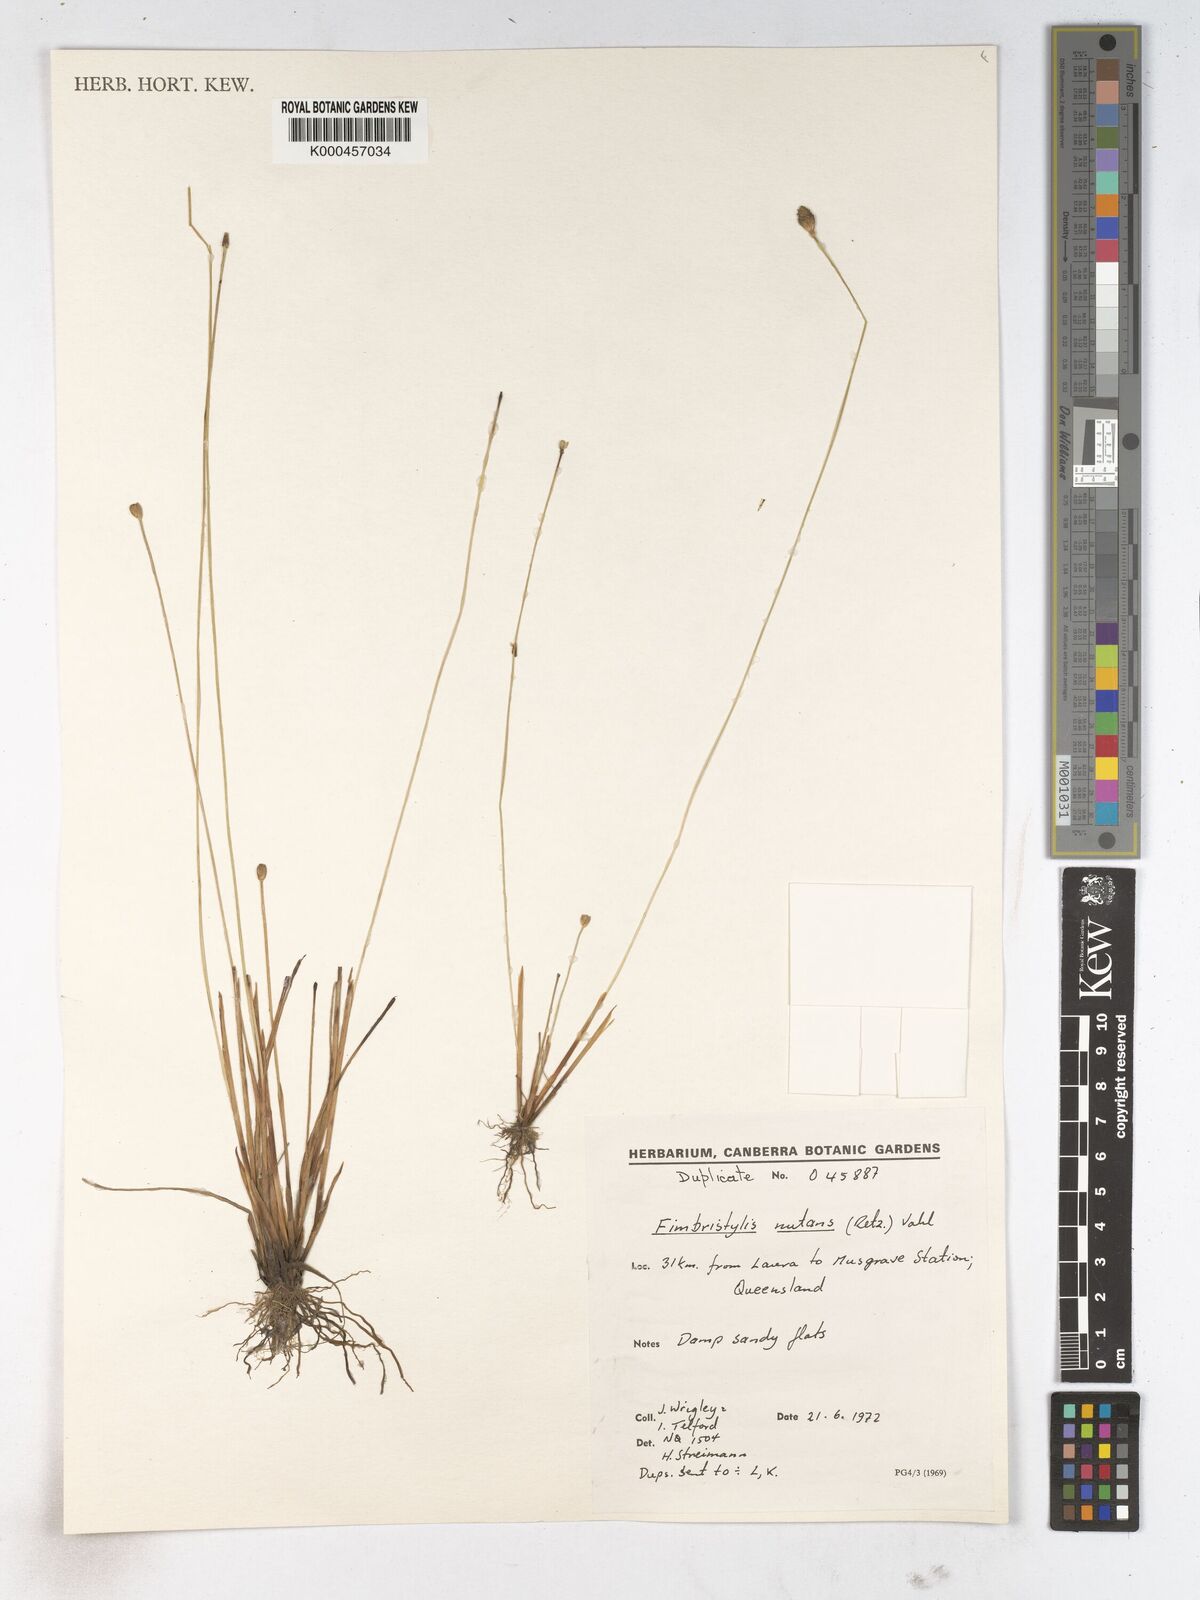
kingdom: Plantae
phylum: Tracheophyta
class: Liliopsida
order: Poales
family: Cyperaceae
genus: Fimbristylis
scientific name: Fimbristylis nutans
